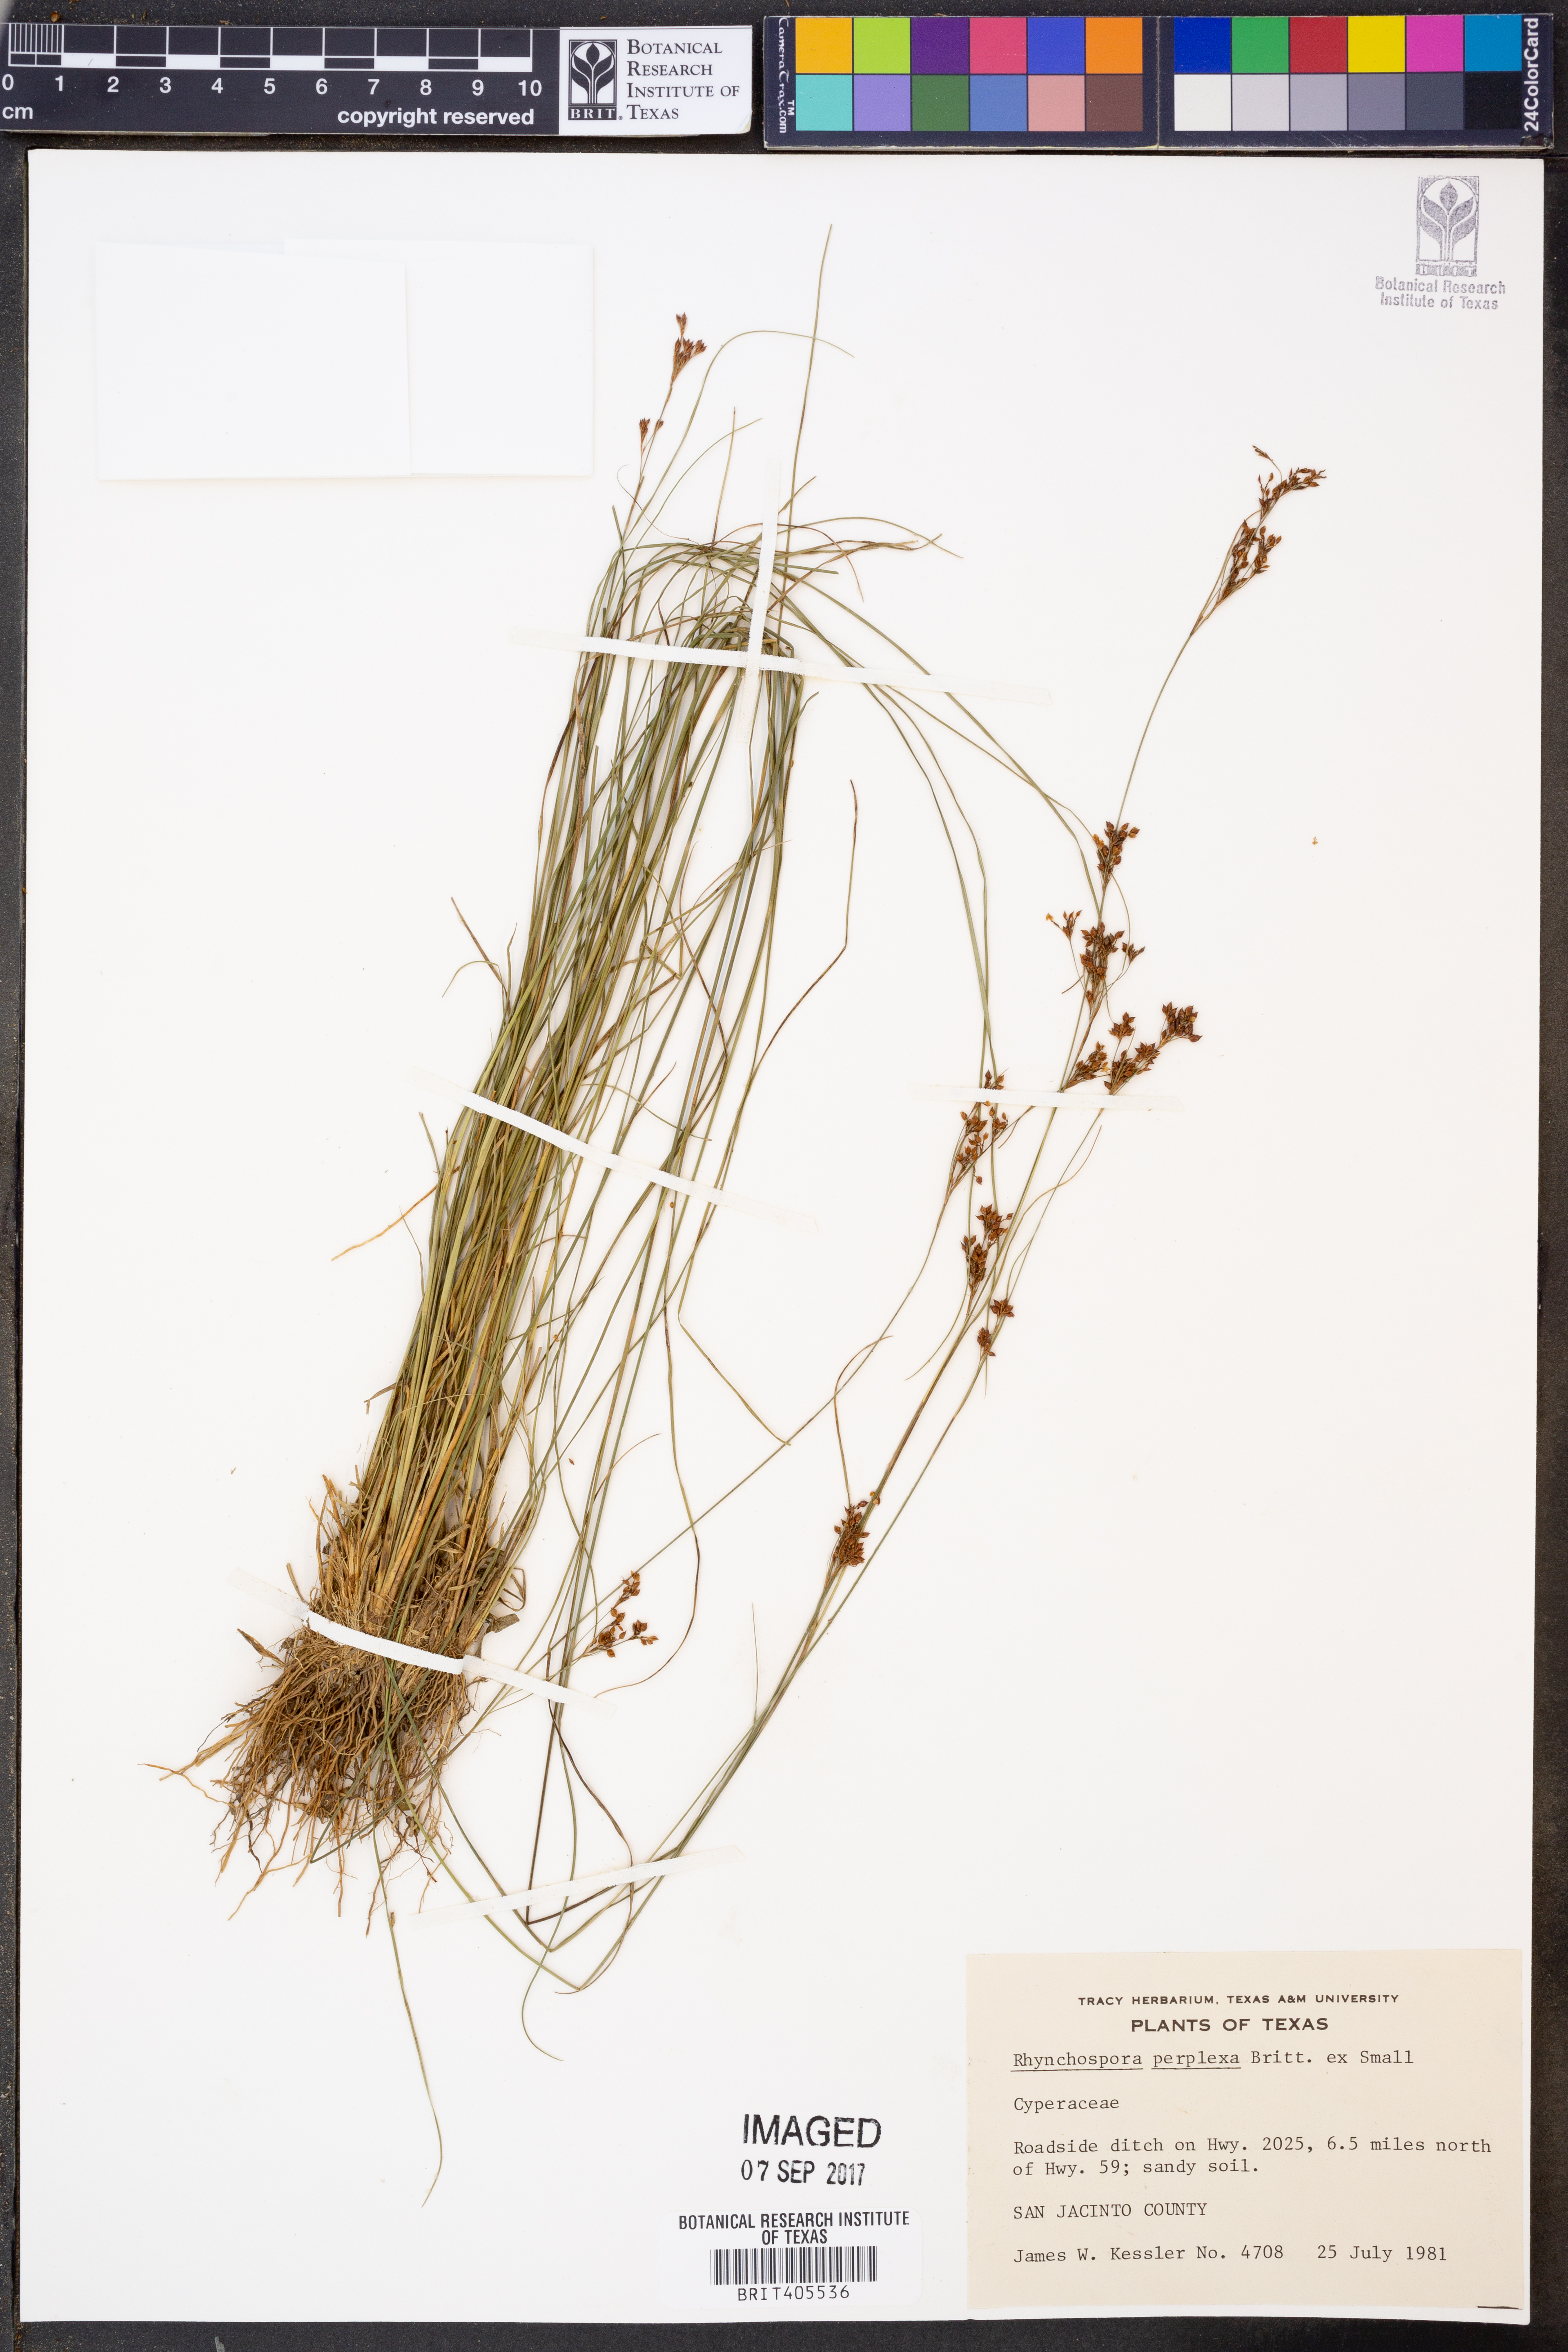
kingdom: Plantae
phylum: Tracheophyta
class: Liliopsida
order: Poales
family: Cyperaceae
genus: Rhynchospora
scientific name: Rhynchospora perplexa
